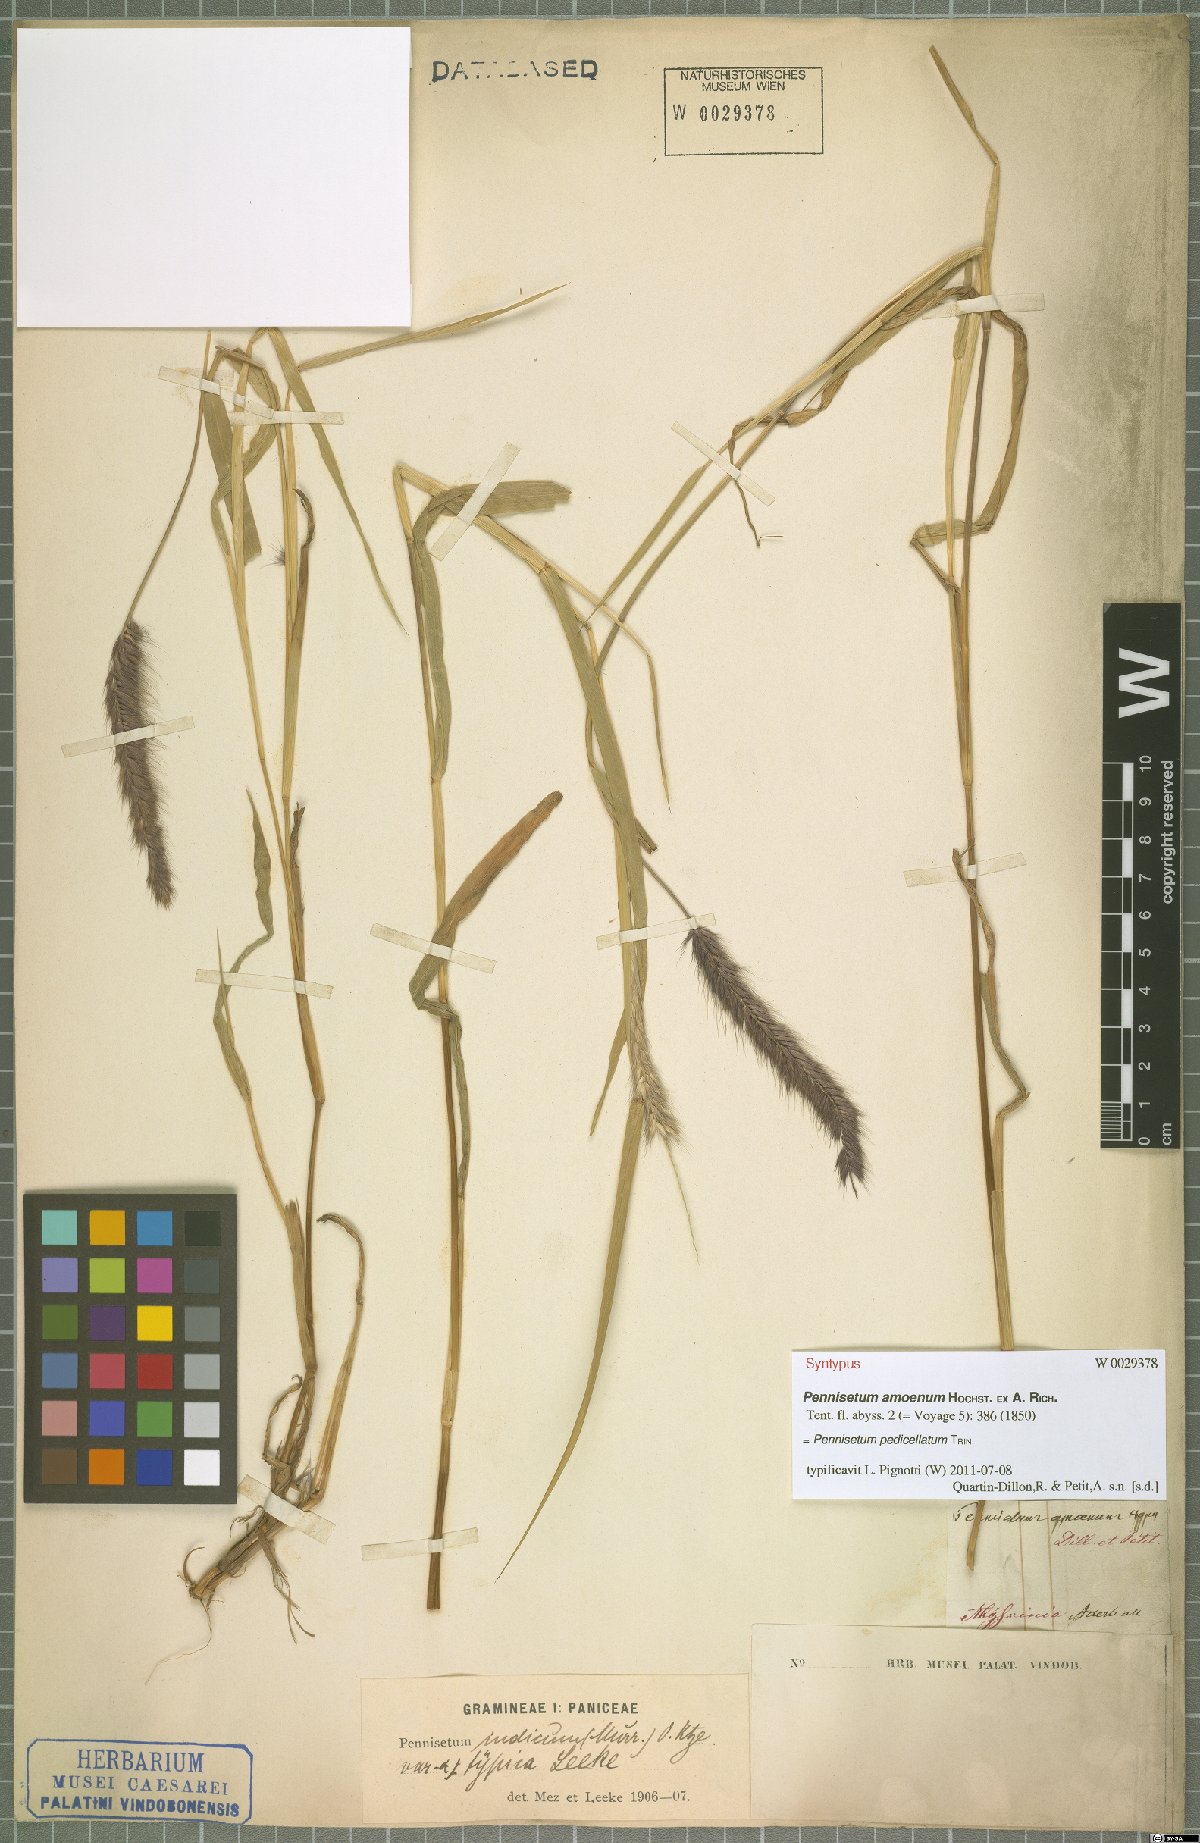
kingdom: Plantae
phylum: Tracheophyta
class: Liliopsida
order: Poales
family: Poaceae
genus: Cenchrus
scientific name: Cenchrus pedicellatus
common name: Hairy fountain grass
